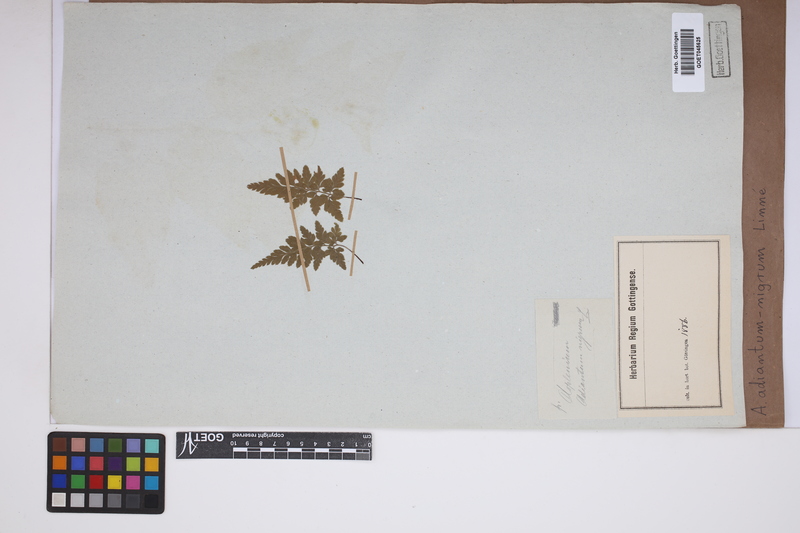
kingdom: Plantae
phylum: Tracheophyta
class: Polypodiopsida
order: Polypodiales
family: Aspleniaceae
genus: Asplenium
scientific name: Asplenium adiantum-nigrum
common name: Black spleenwort
